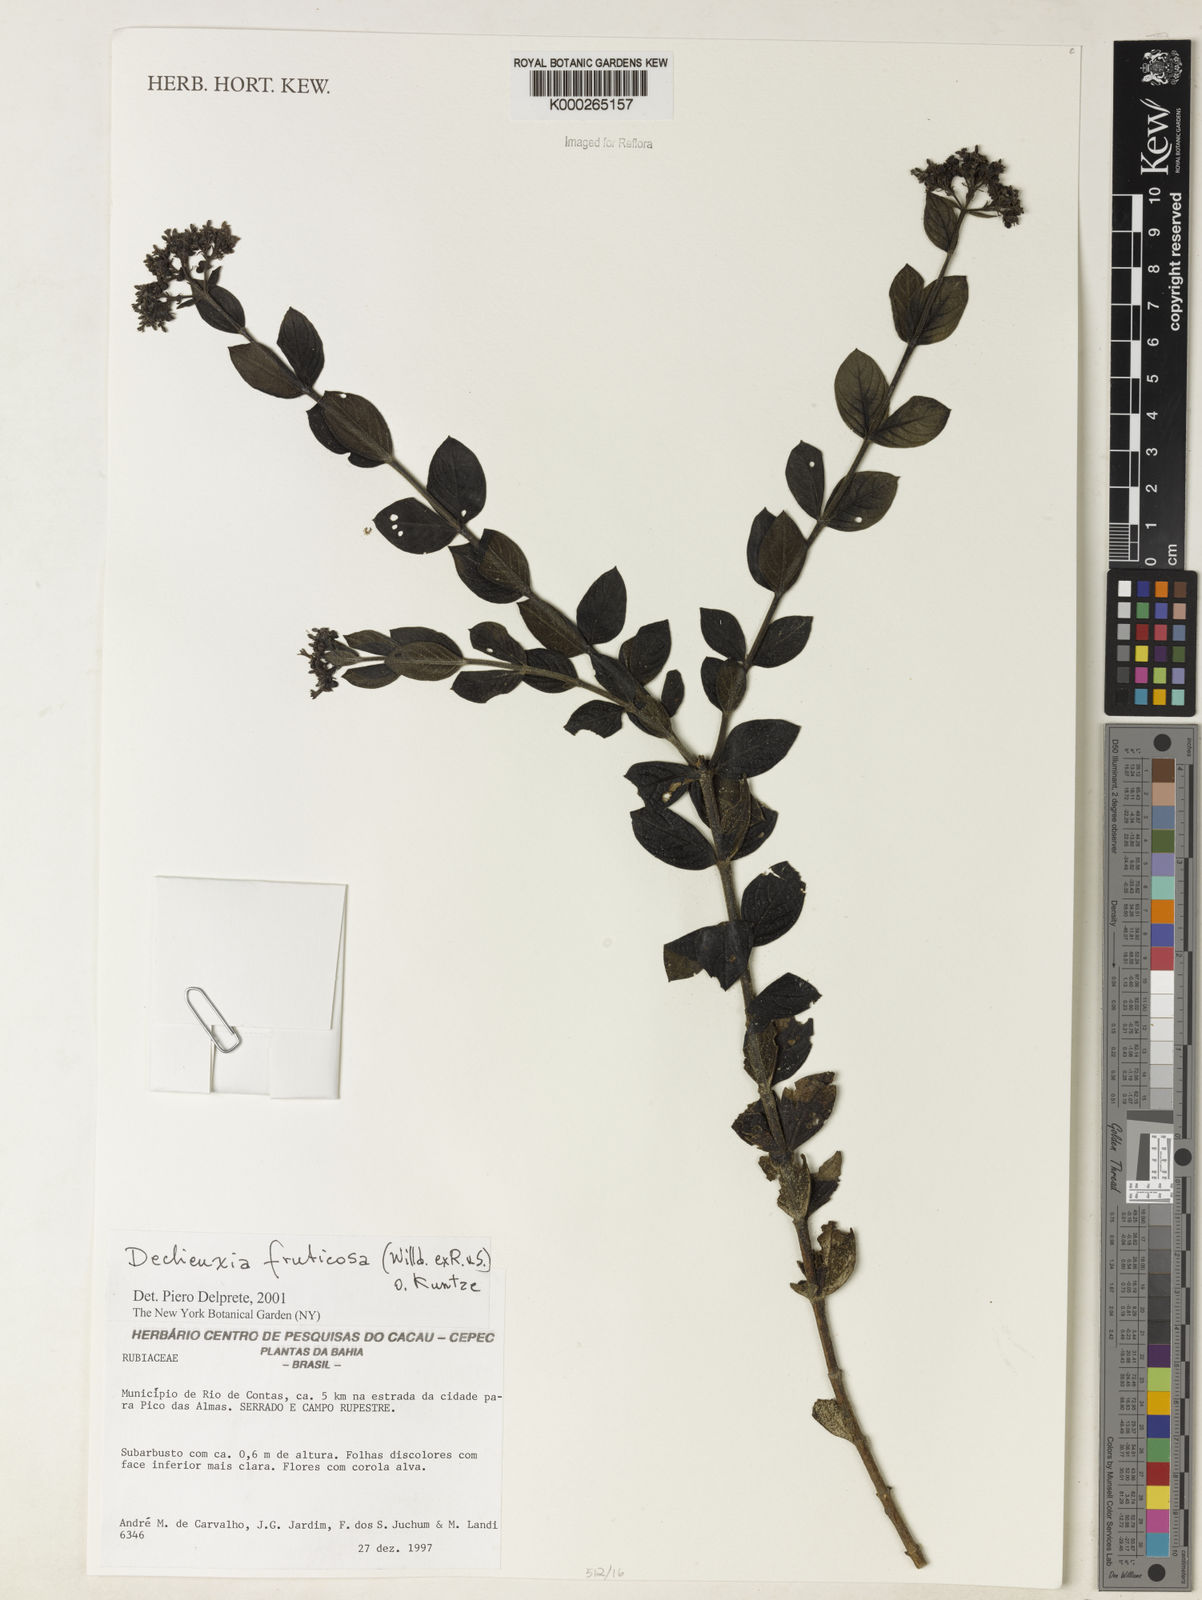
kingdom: Plantae
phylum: Tracheophyta
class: Magnoliopsida
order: Gentianales
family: Rubiaceae
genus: Declieuxia
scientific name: Declieuxia fruticosa
